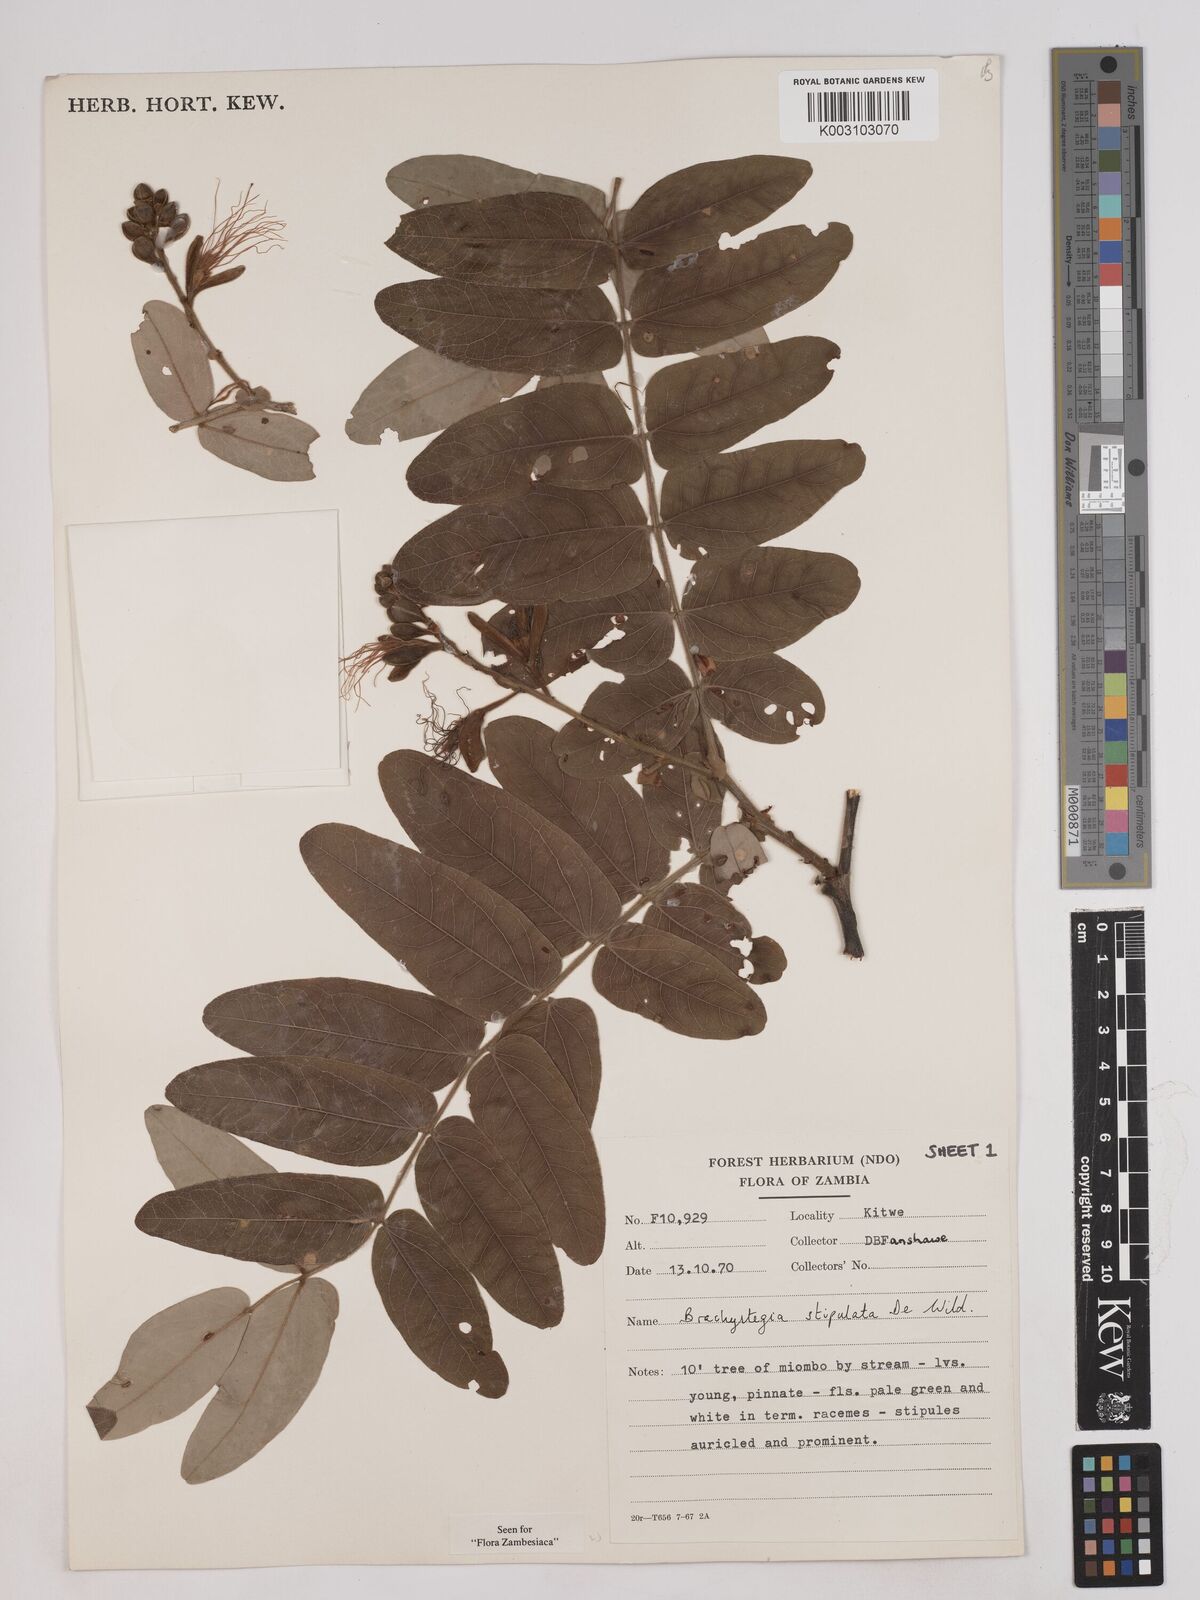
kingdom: Plantae
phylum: Tracheophyta
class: Magnoliopsida
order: Fabales
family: Fabaceae
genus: Brachystegia
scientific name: Brachystegia stipulata
